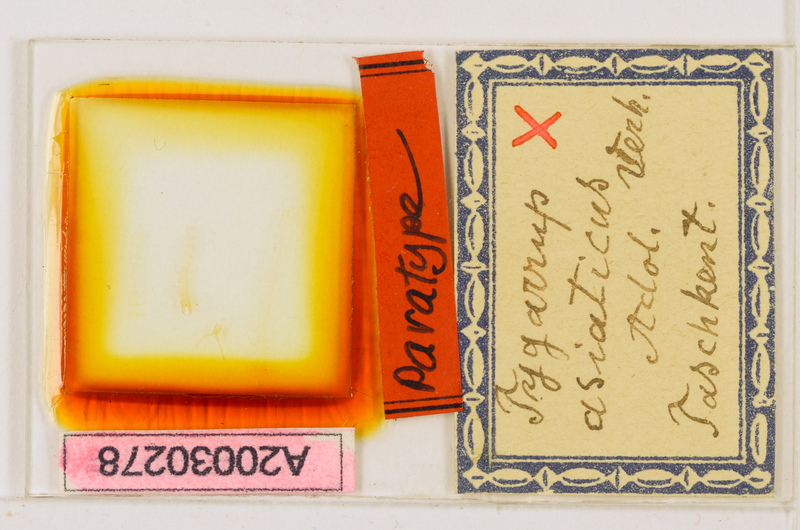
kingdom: Animalia
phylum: Arthropoda
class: Chilopoda
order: Geophilomorpha
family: Mecistocephalidae
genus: Krateraspis
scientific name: Krateraspis meinerti
